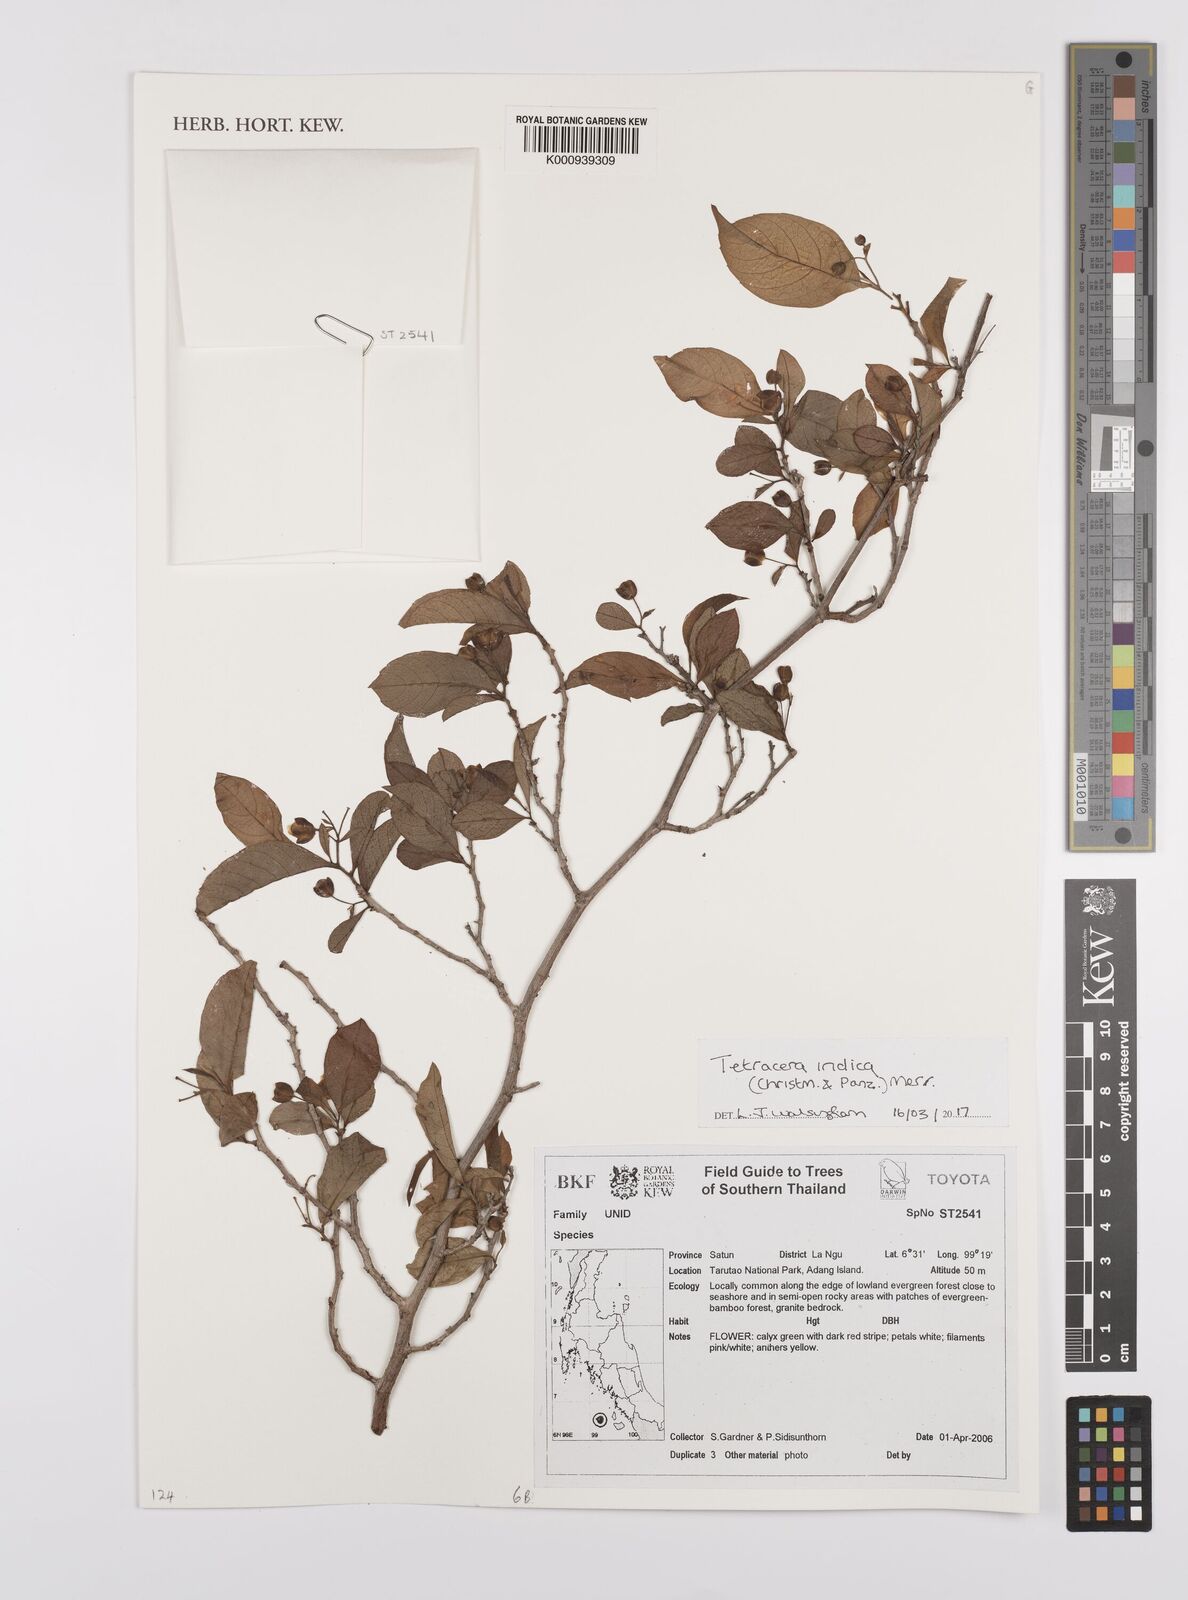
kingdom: Plantae
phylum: Tracheophyta
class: Magnoliopsida
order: Dilleniales
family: Dilleniaceae
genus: Tetracera
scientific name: Tetracera indica
